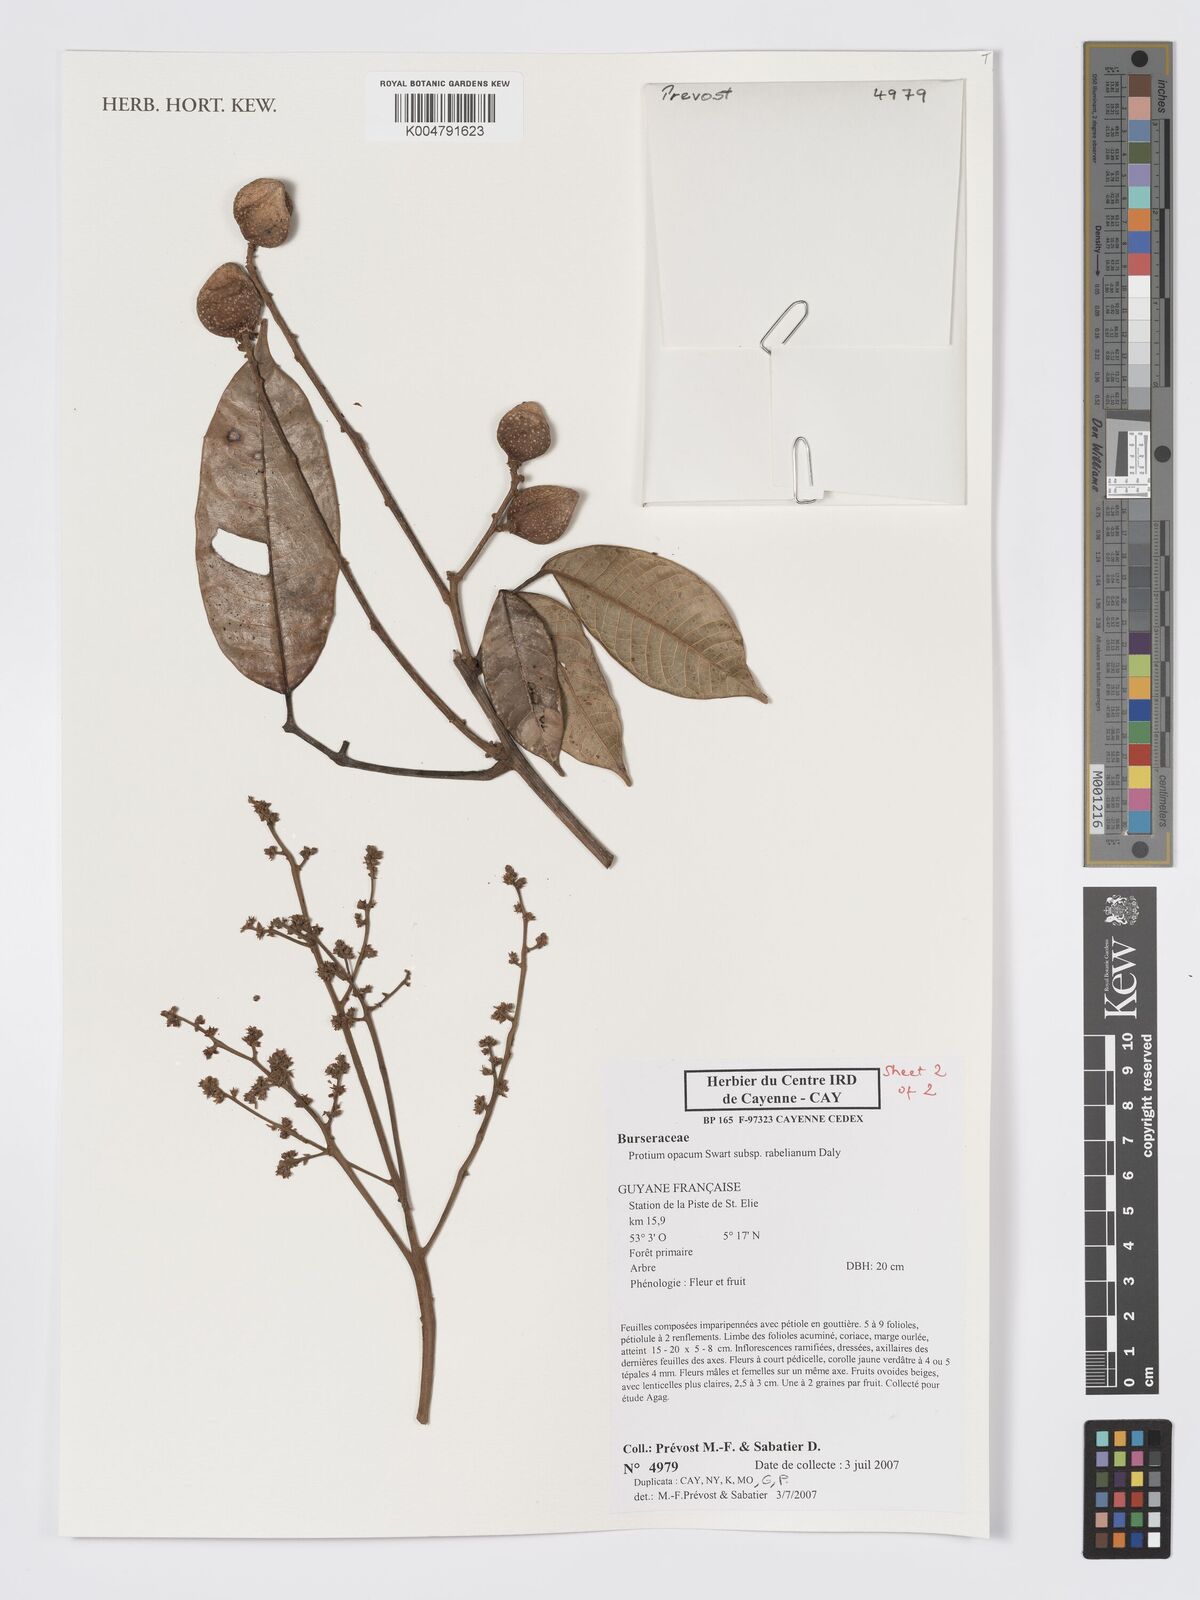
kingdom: Plantae
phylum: Tracheophyta
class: Magnoliopsida
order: Sapindales
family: Burseraceae
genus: Protium
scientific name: Protium opacum
